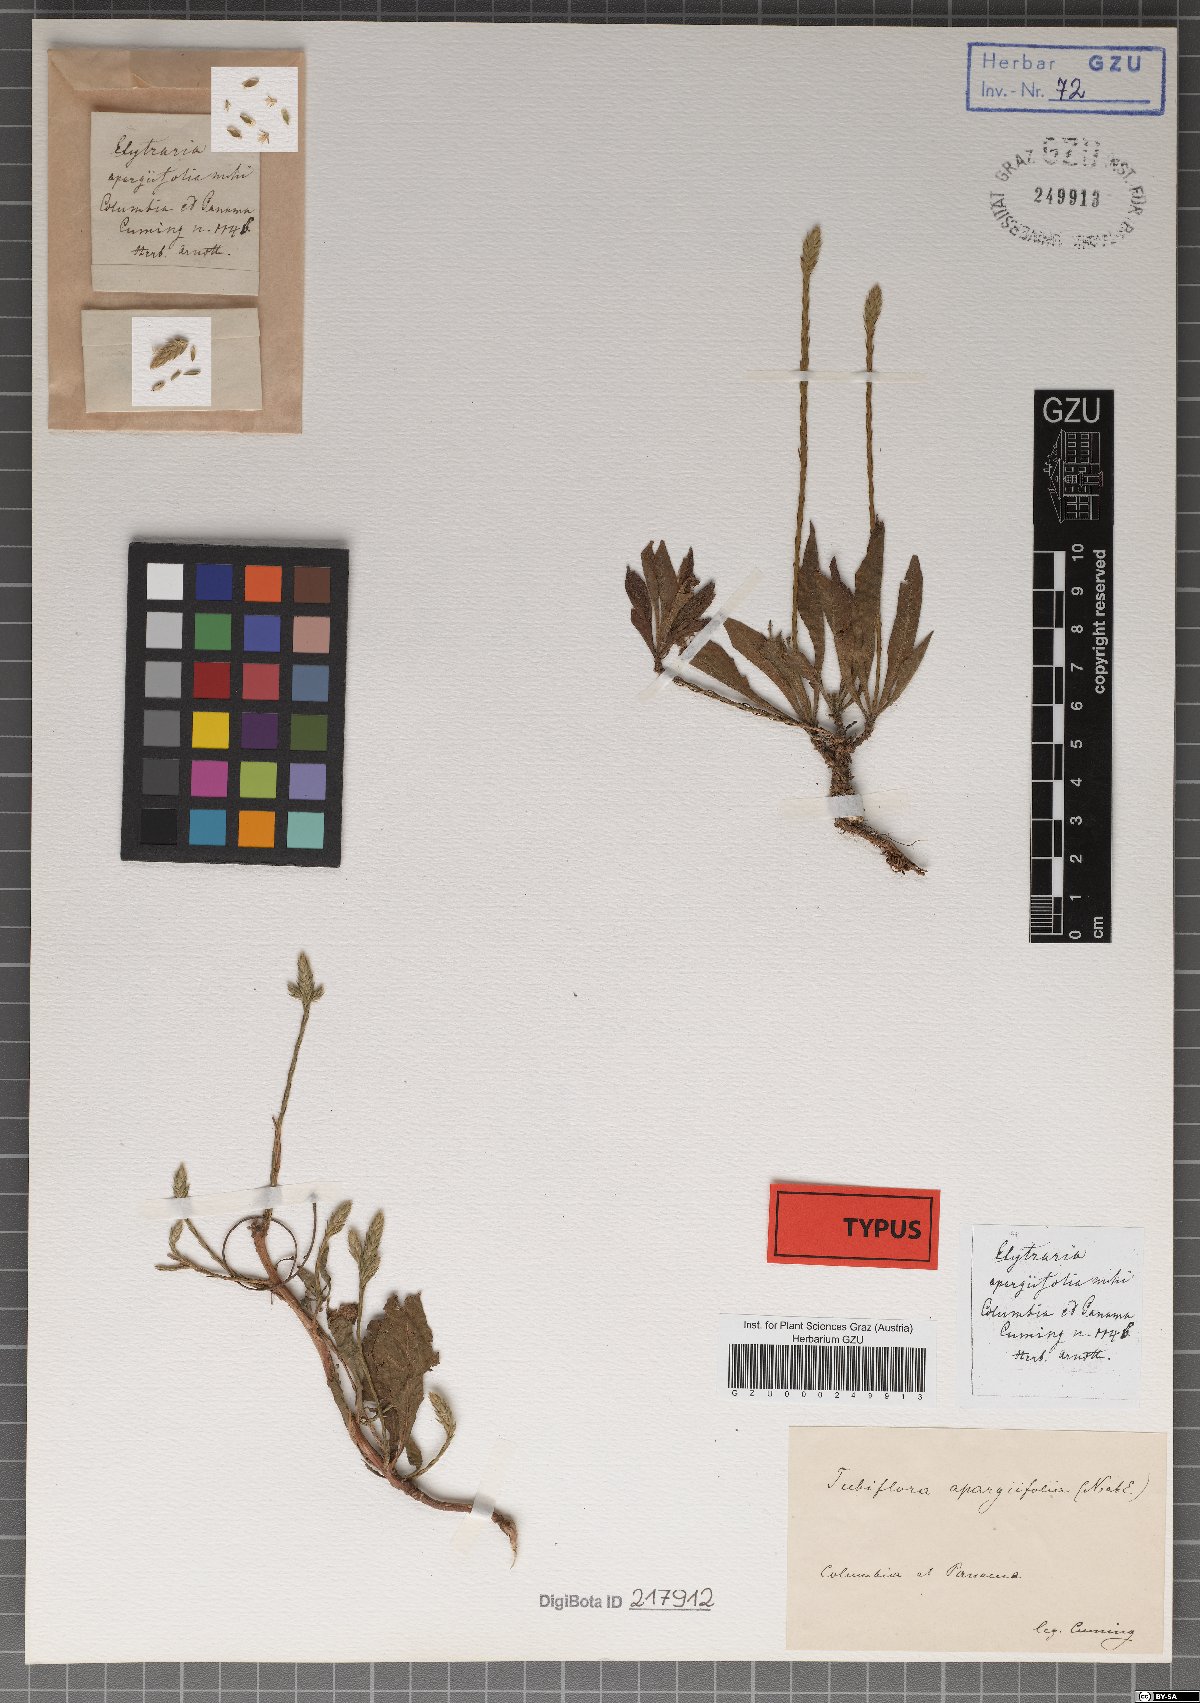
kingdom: Plantae
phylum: Tracheophyta
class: Magnoliopsida
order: Lamiales
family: Acanthaceae
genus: Elytraria
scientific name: Elytraria imbricata
